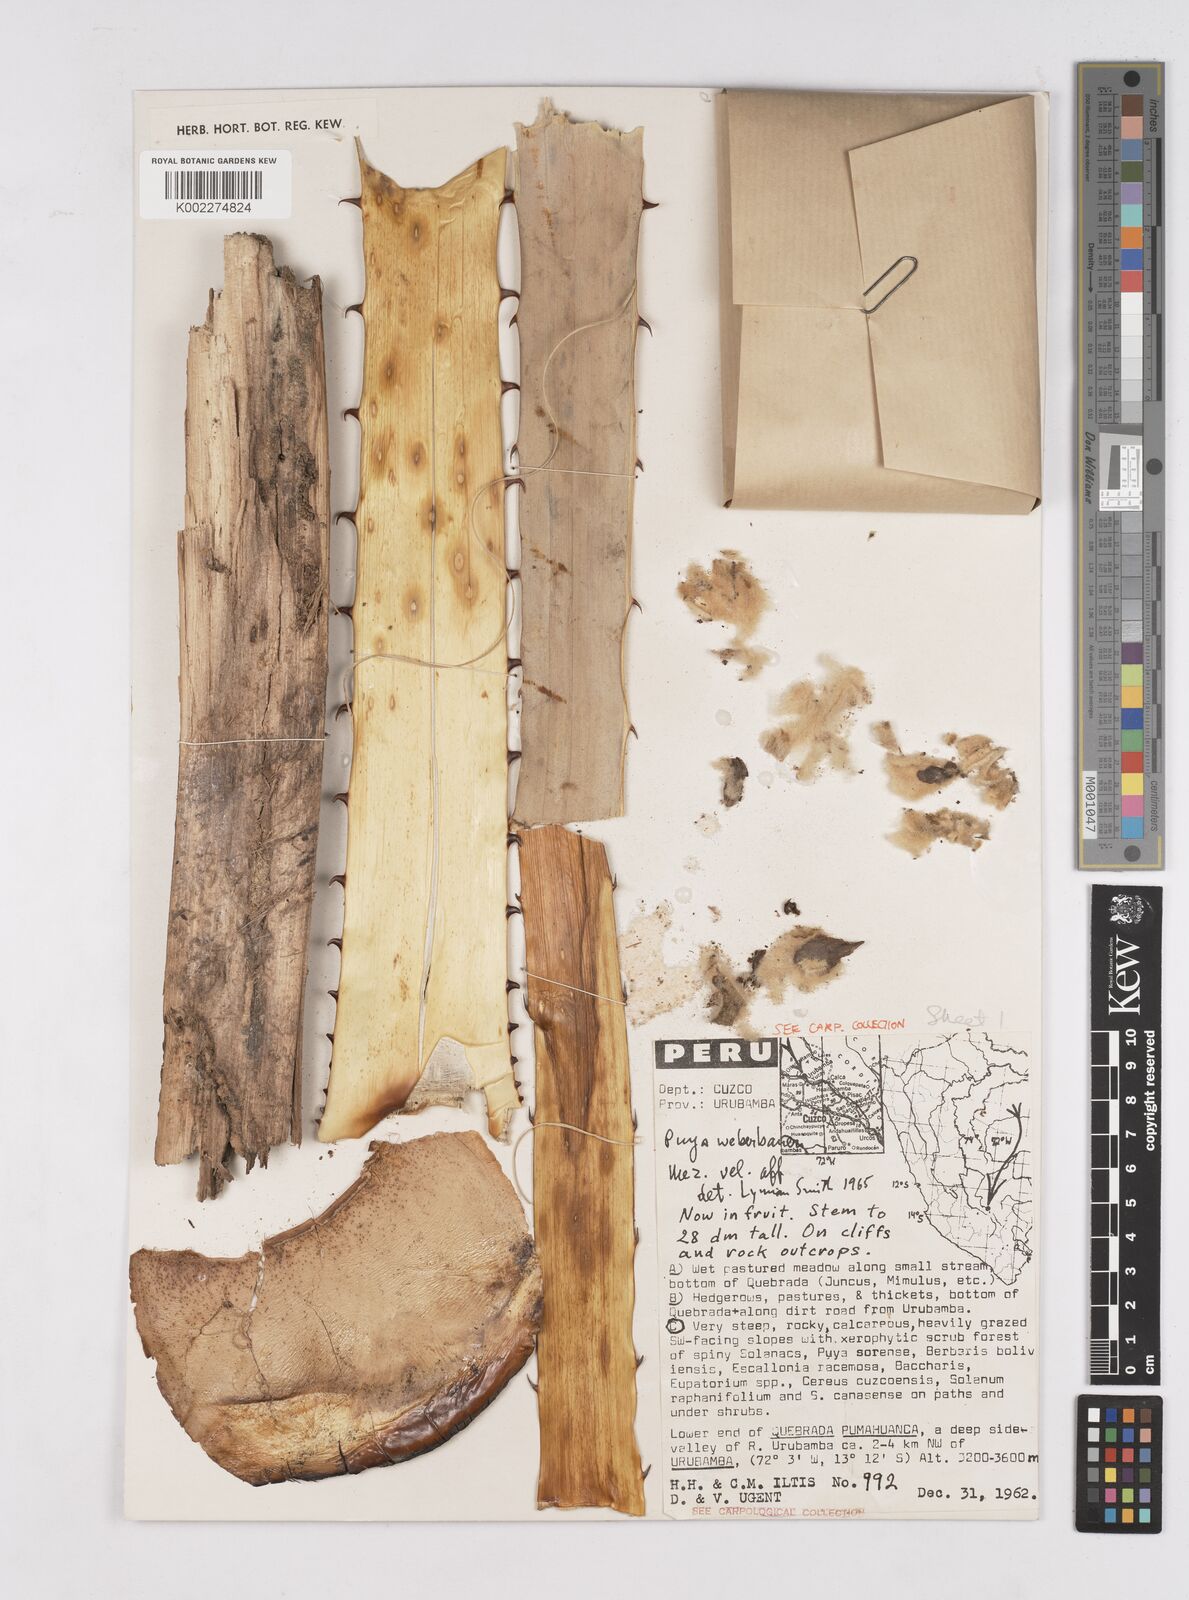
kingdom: Plantae
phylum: Tracheophyta
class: Liliopsida
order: Poales
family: Bromeliaceae
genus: Puya
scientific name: Puya weberbaueri
